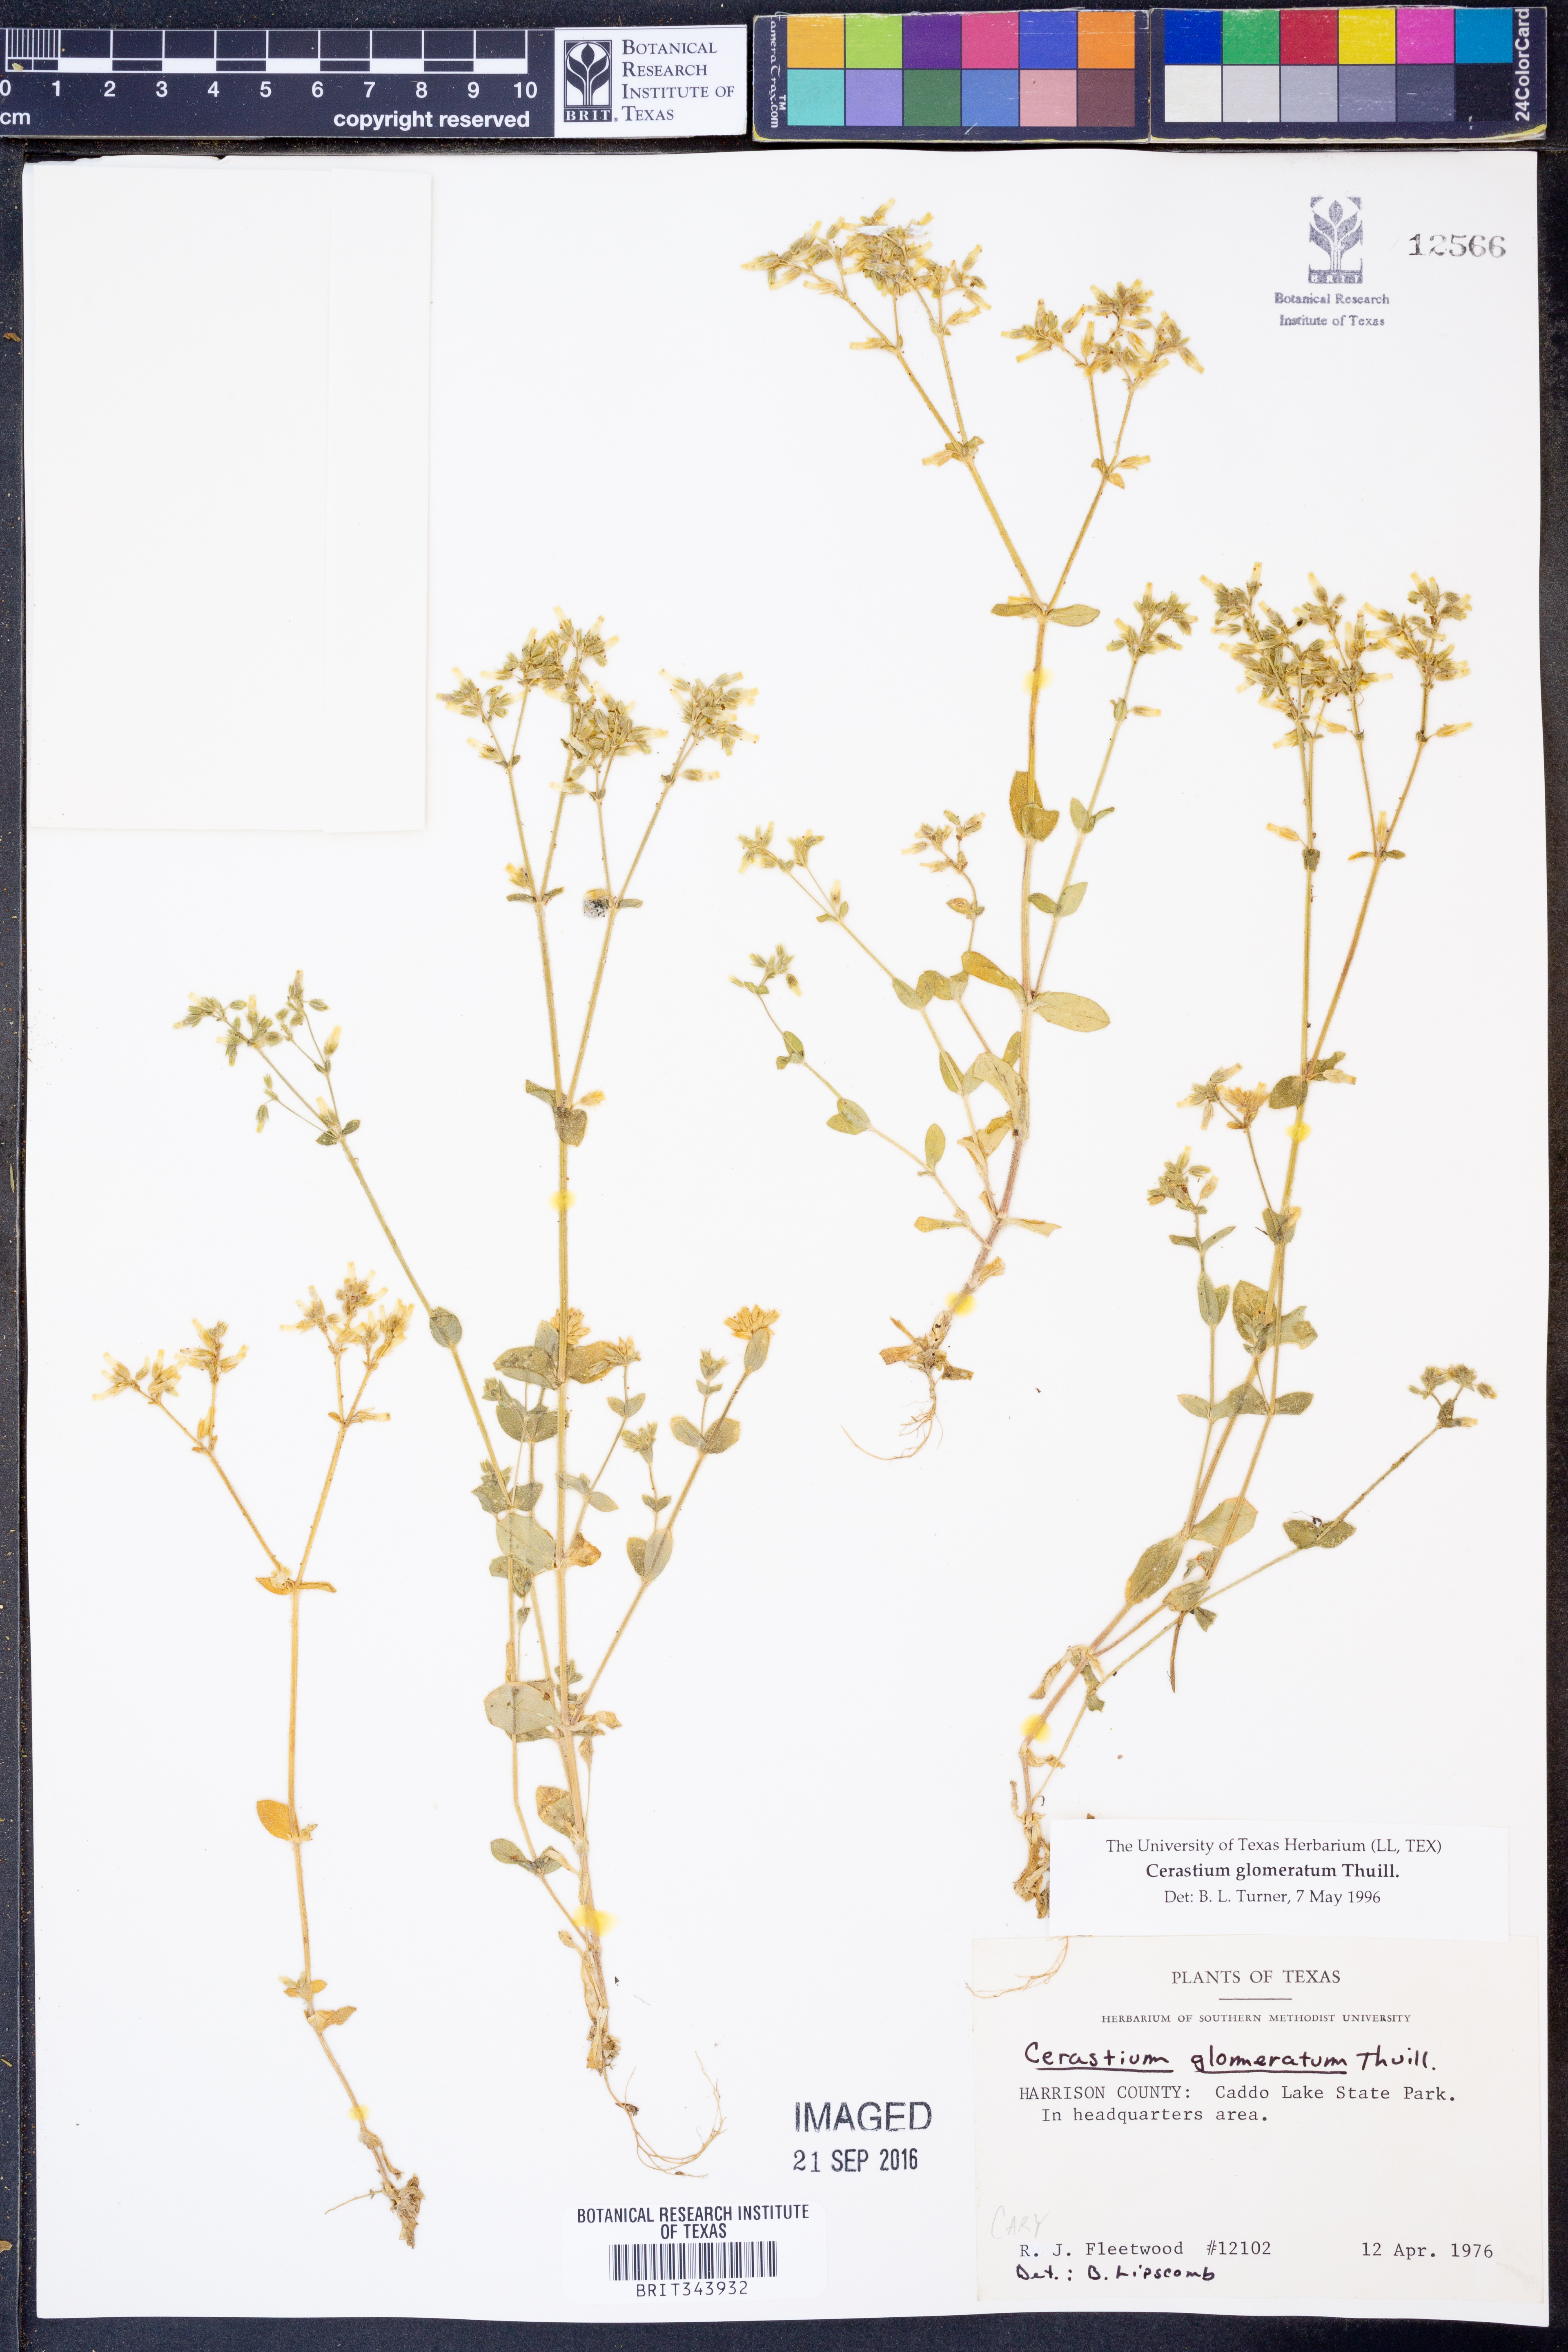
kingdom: Plantae
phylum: Tracheophyta
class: Magnoliopsida
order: Caryophyllales
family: Caryophyllaceae
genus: Cerastium
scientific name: Cerastium glomeratum
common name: Sticky chickweed
